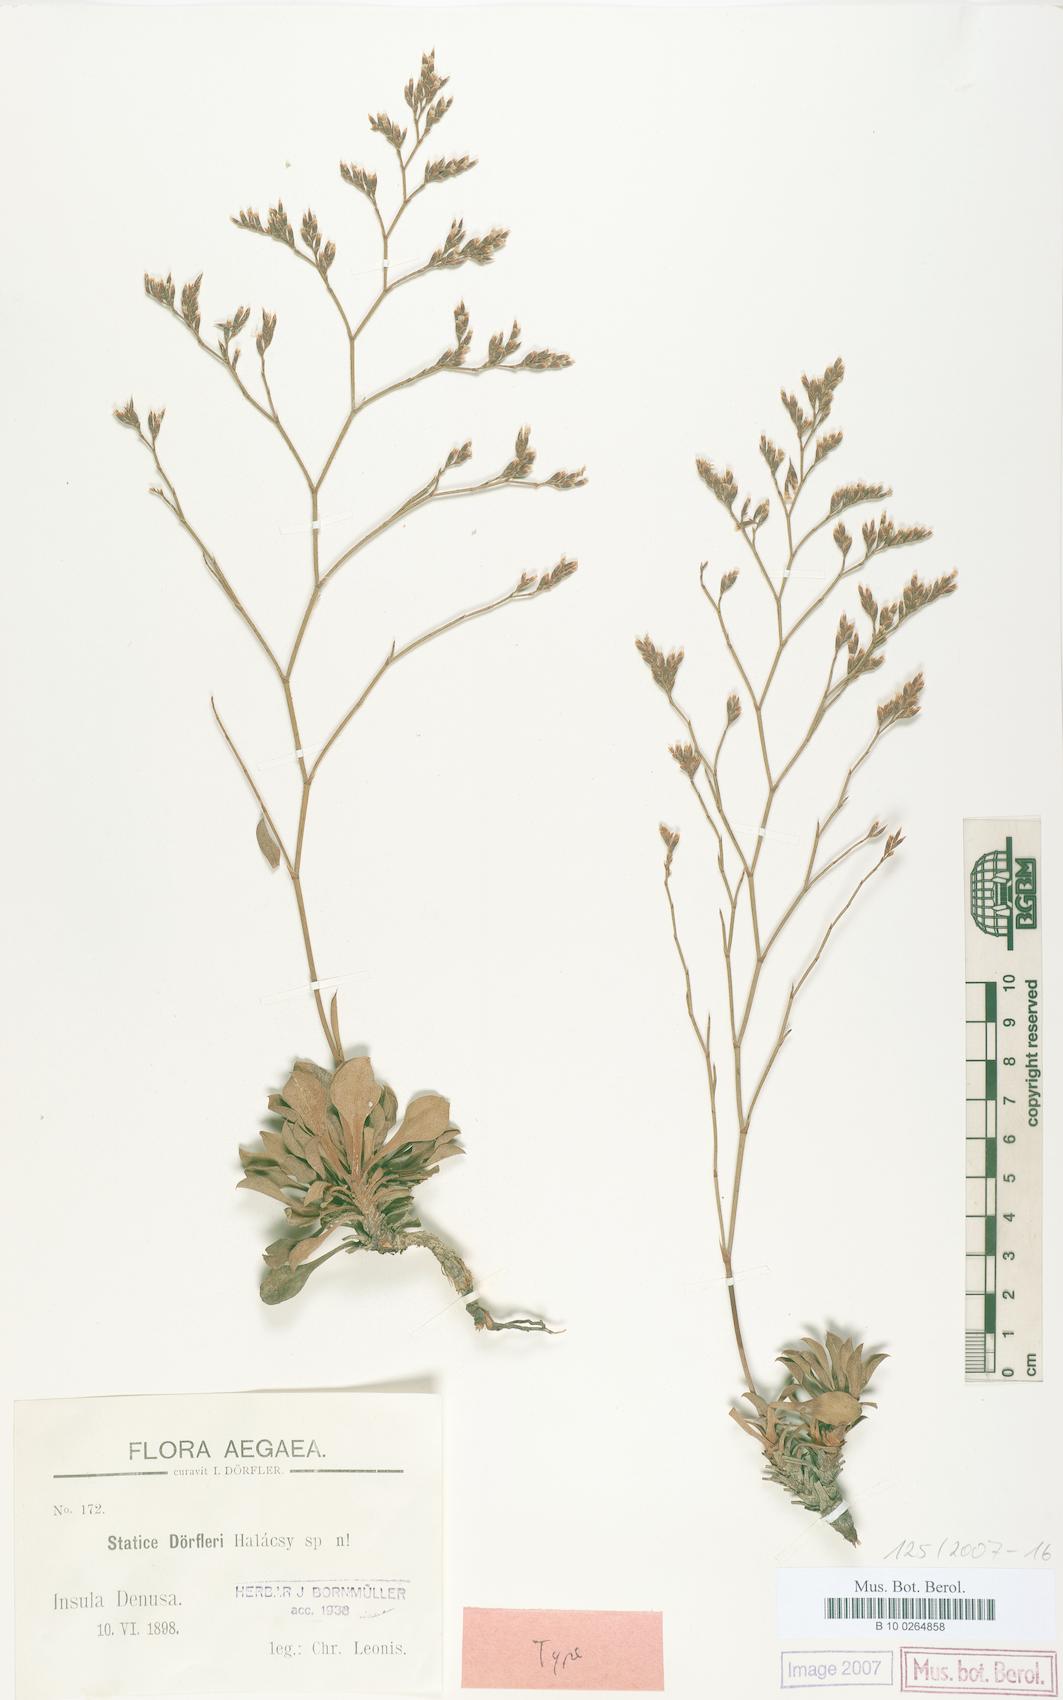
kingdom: Plantae
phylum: Tracheophyta
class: Magnoliopsida
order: Caryophyllales
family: Plumbaginaceae
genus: Limonium
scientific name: Limonium doerfleri
